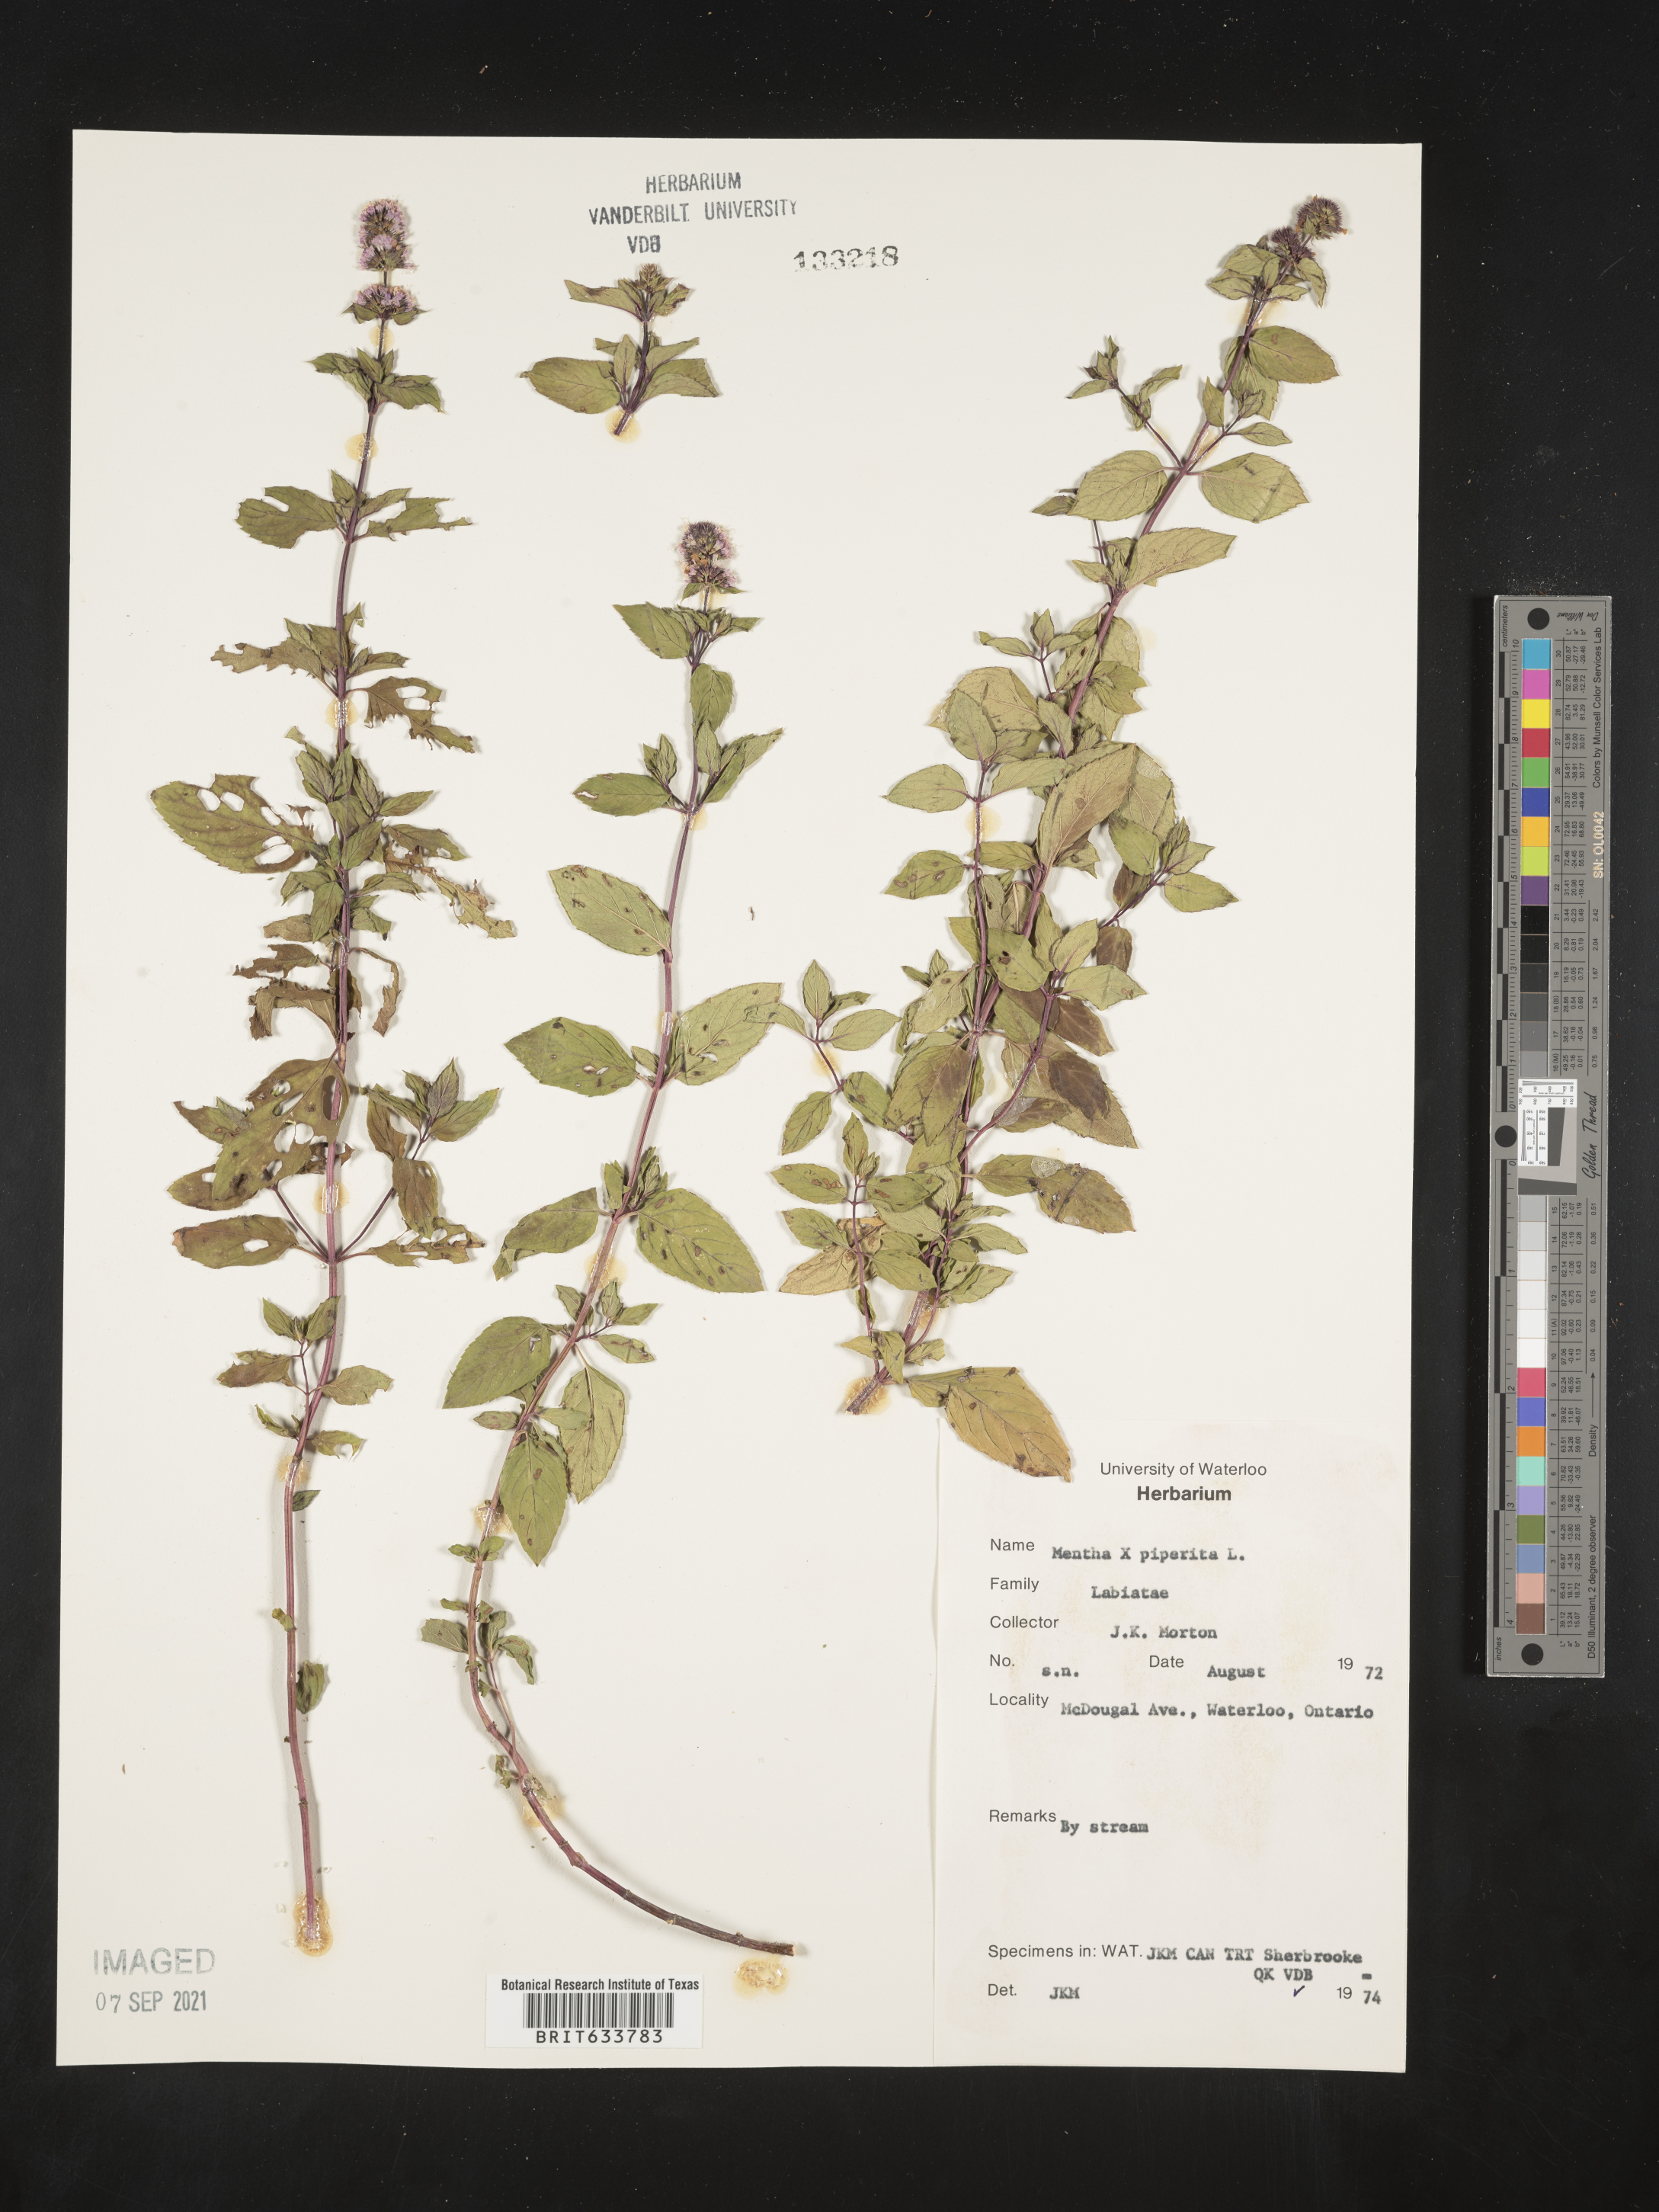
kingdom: Plantae
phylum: Tracheophyta
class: Magnoliopsida
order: Lamiales
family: Lamiaceae
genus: Mentha
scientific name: Mentha
